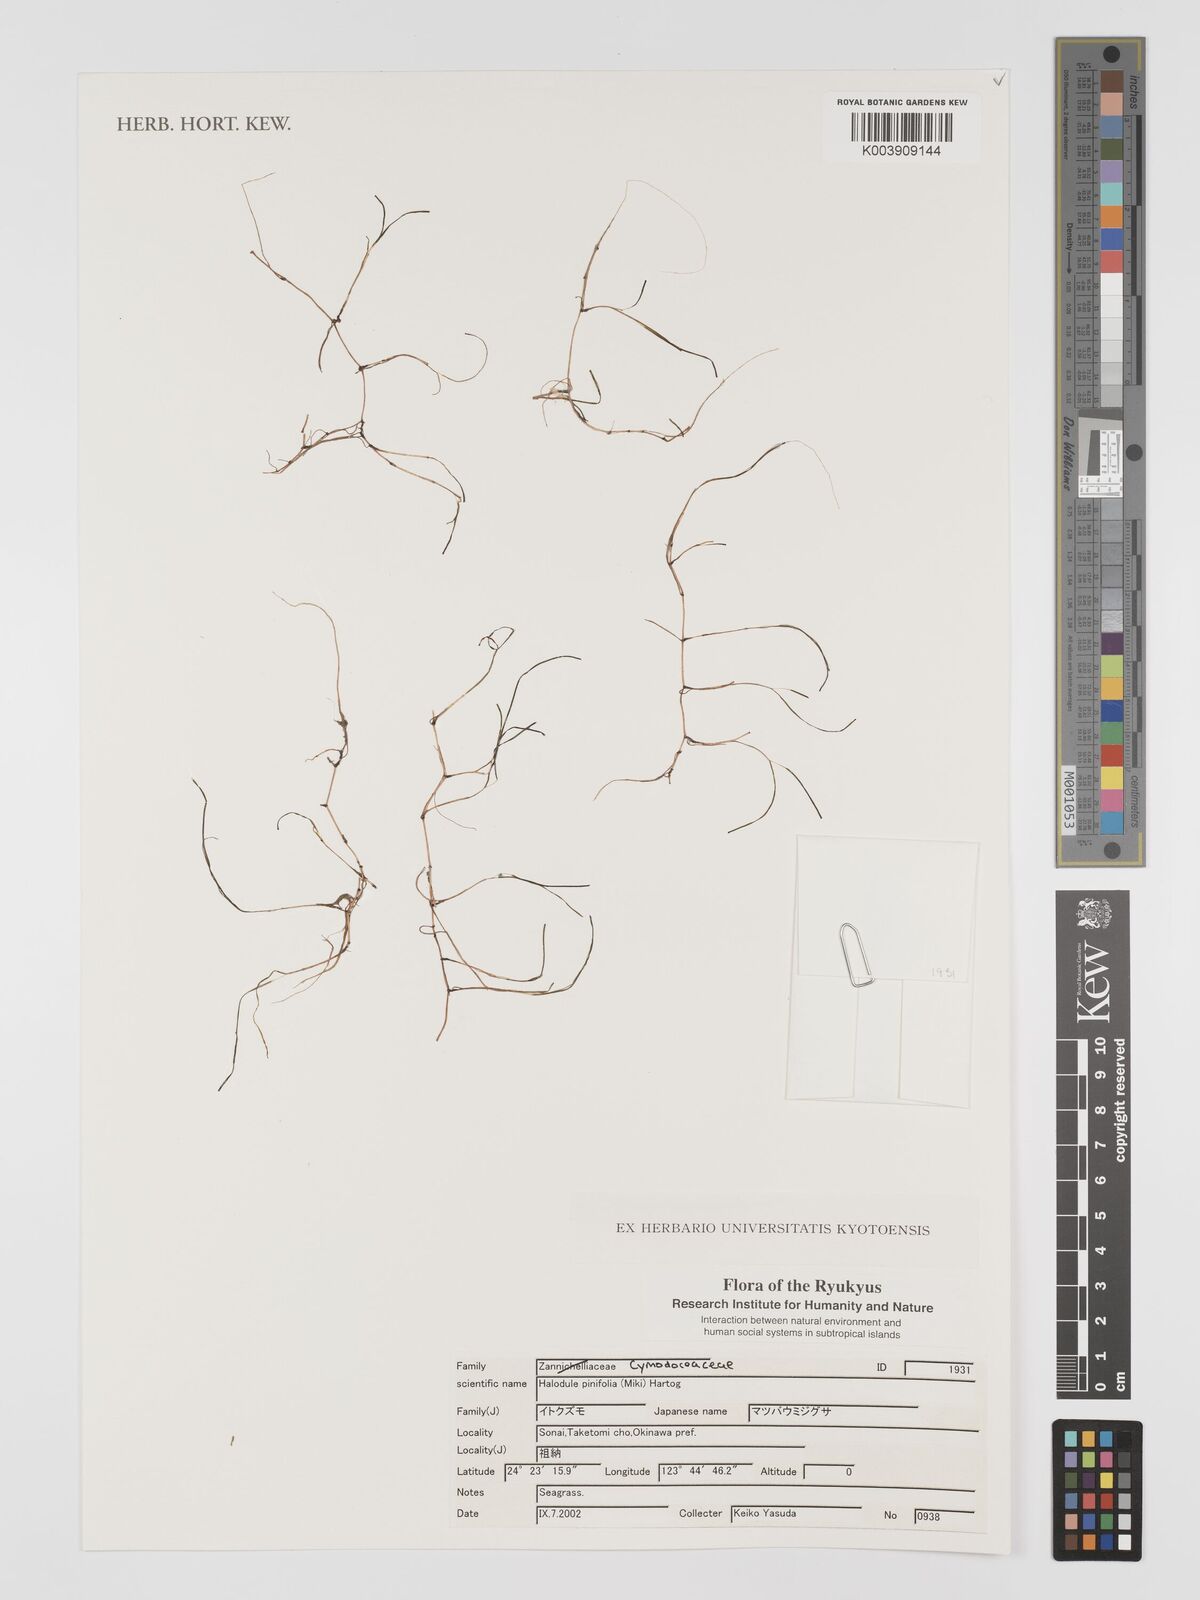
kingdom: Plantae
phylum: Tracheophyta
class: Liliopsida
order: Alismatales
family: Cymodoceaceae
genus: Halodule
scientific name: Halodule pinifolia
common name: Species code: hp
